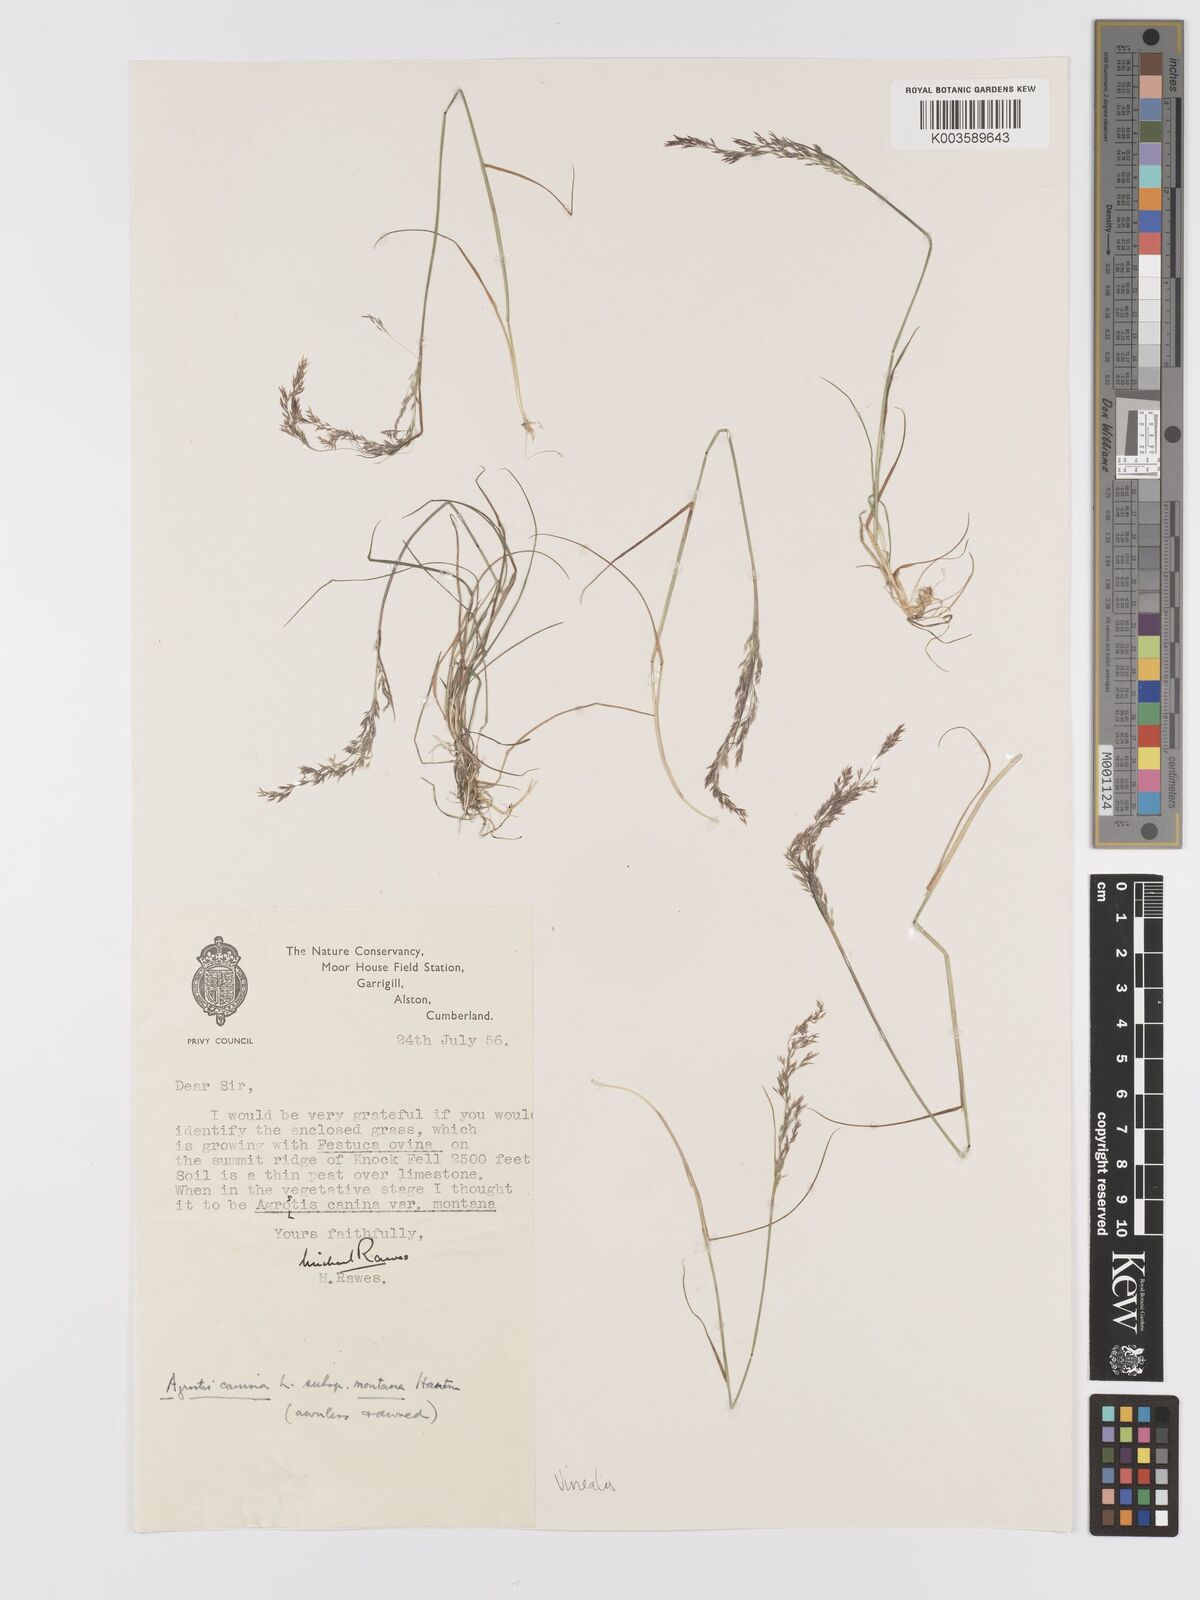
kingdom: Plantae
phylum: Tracheophyta
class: Liliopsida
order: Poales
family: Poaceae
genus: Agrostis
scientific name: Agrostis
